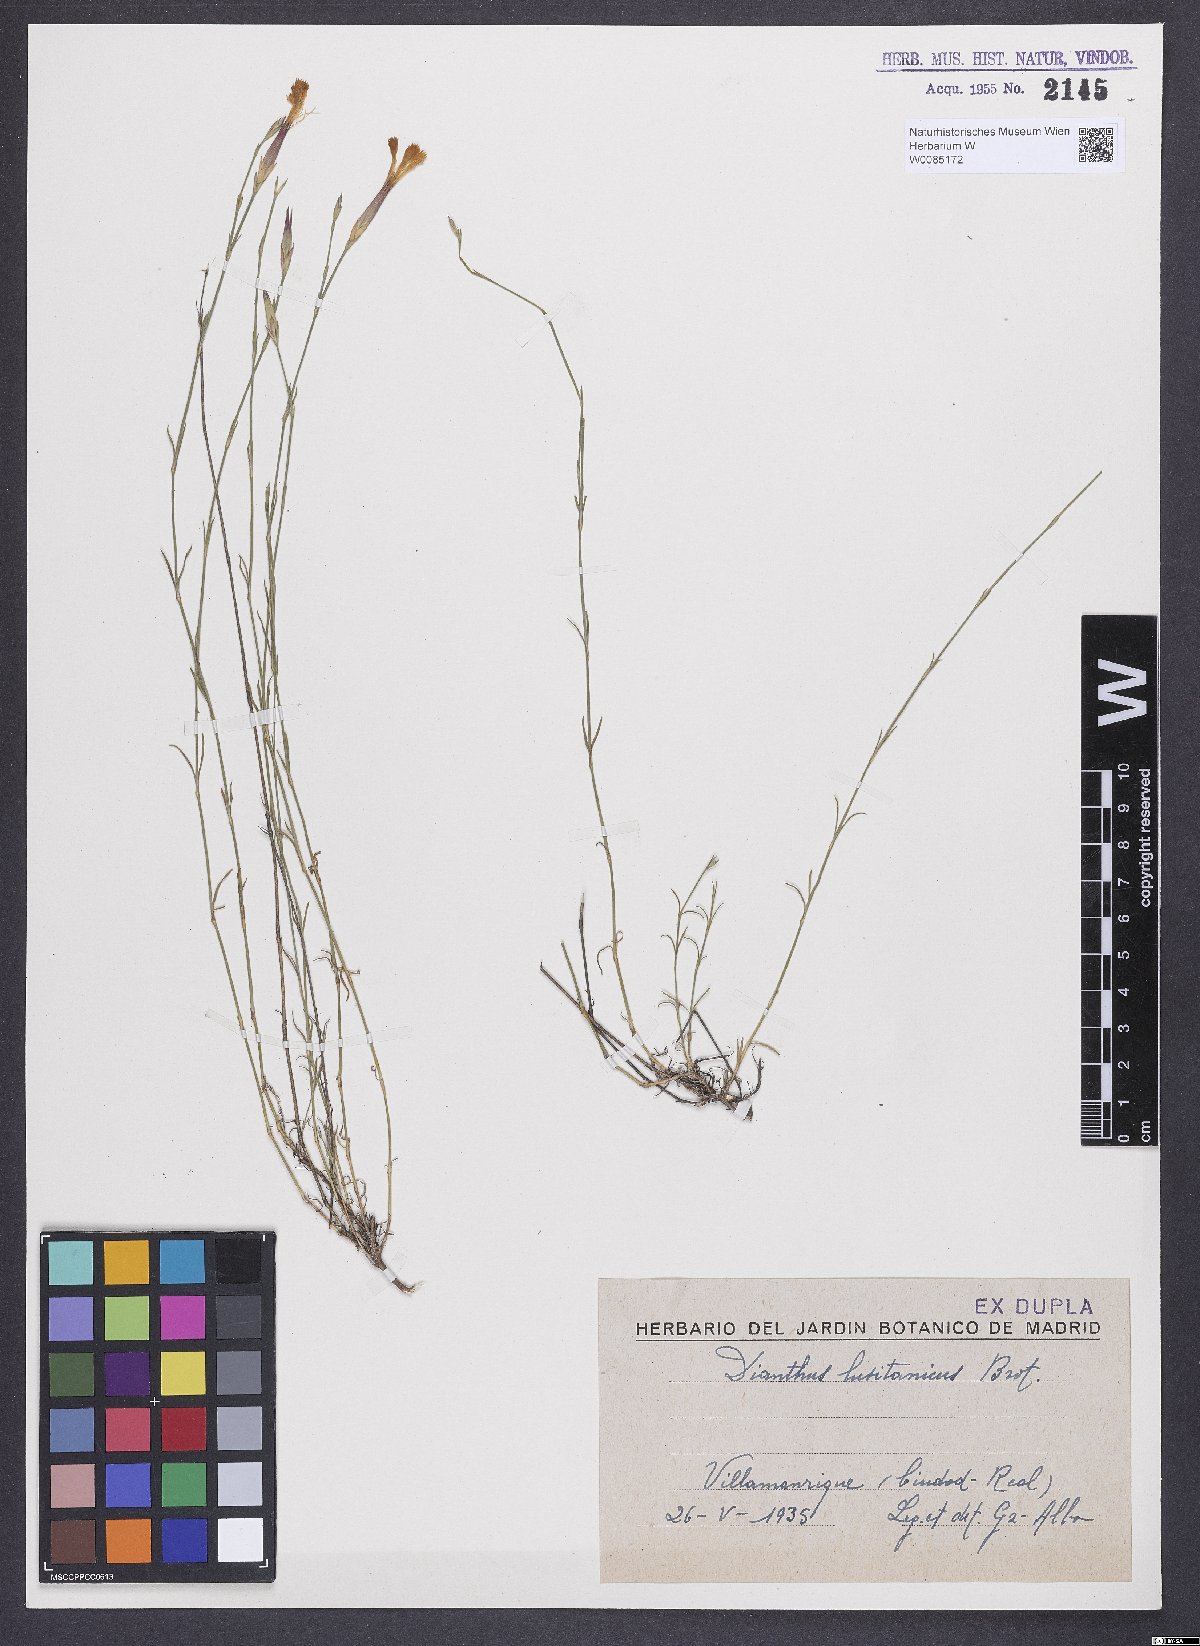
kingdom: Plantae
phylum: Tracheophyta
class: Magnoliopsida
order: Caryophyllales
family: Caryophyllaceae
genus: Dianthus
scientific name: Dianthus lusitanus
